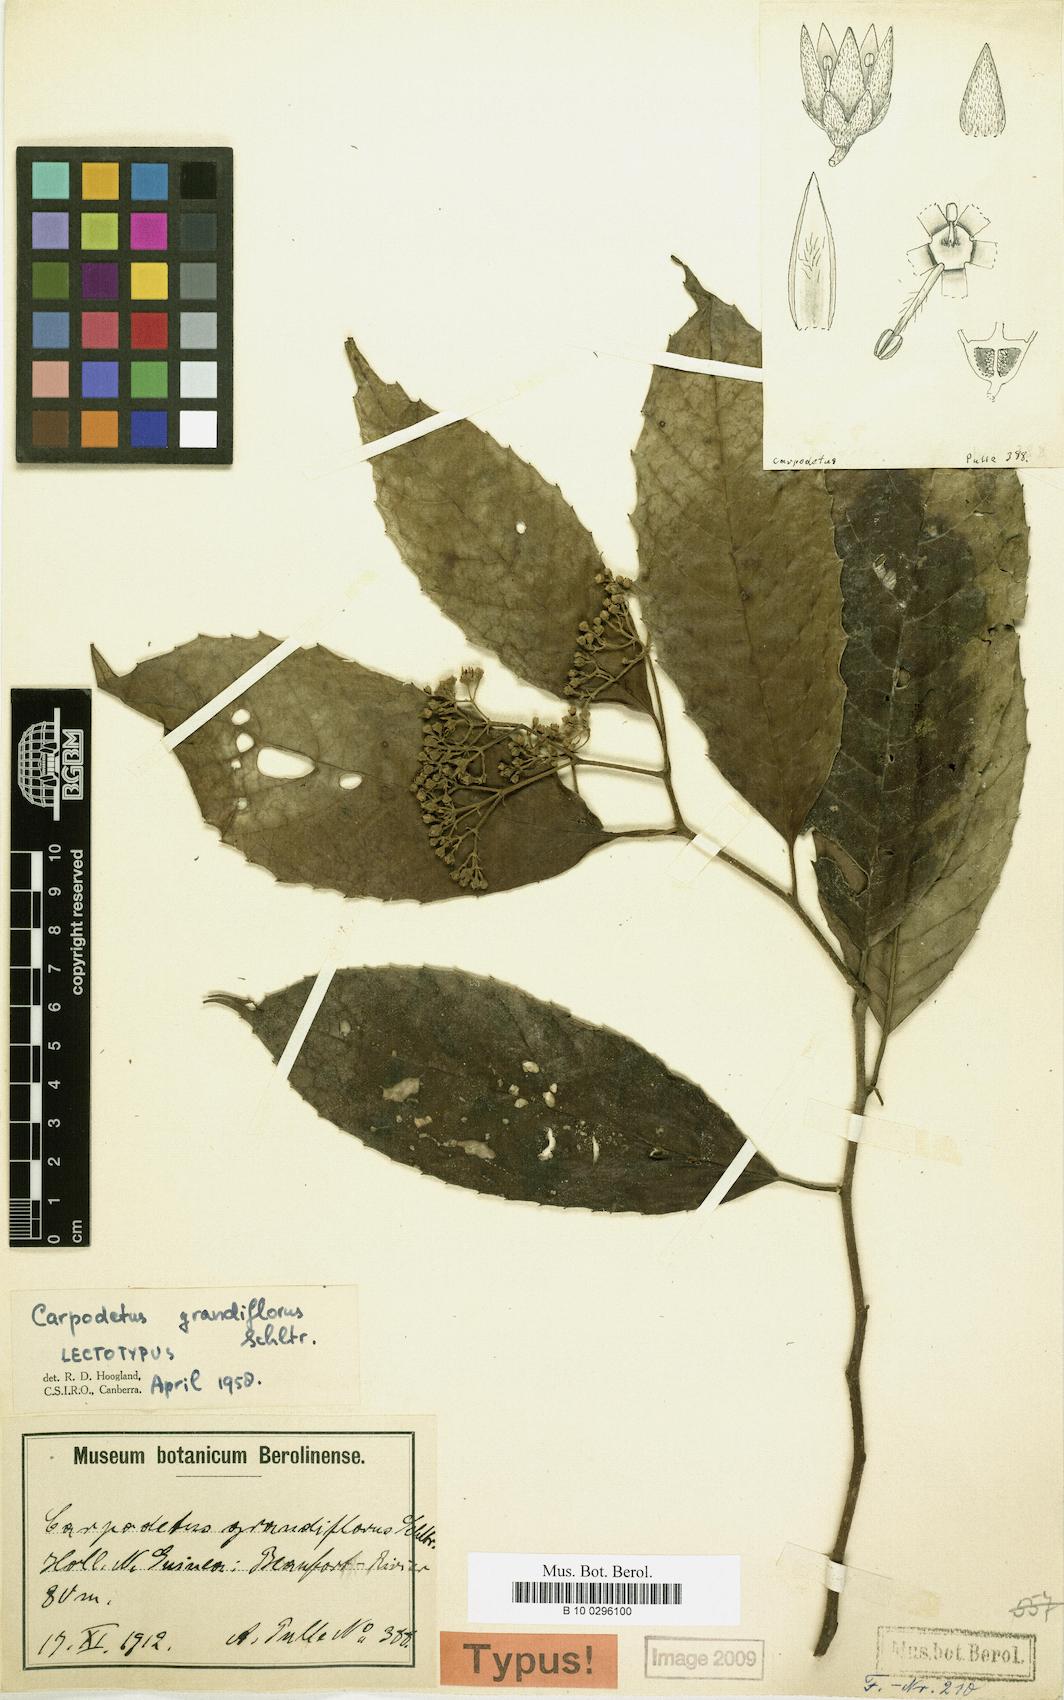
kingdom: Plantae
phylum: Tracheophyta
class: Magnoliopsida
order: Asterales
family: Rousseaceae
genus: Carpodetus
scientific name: Carpodetus arboreus
